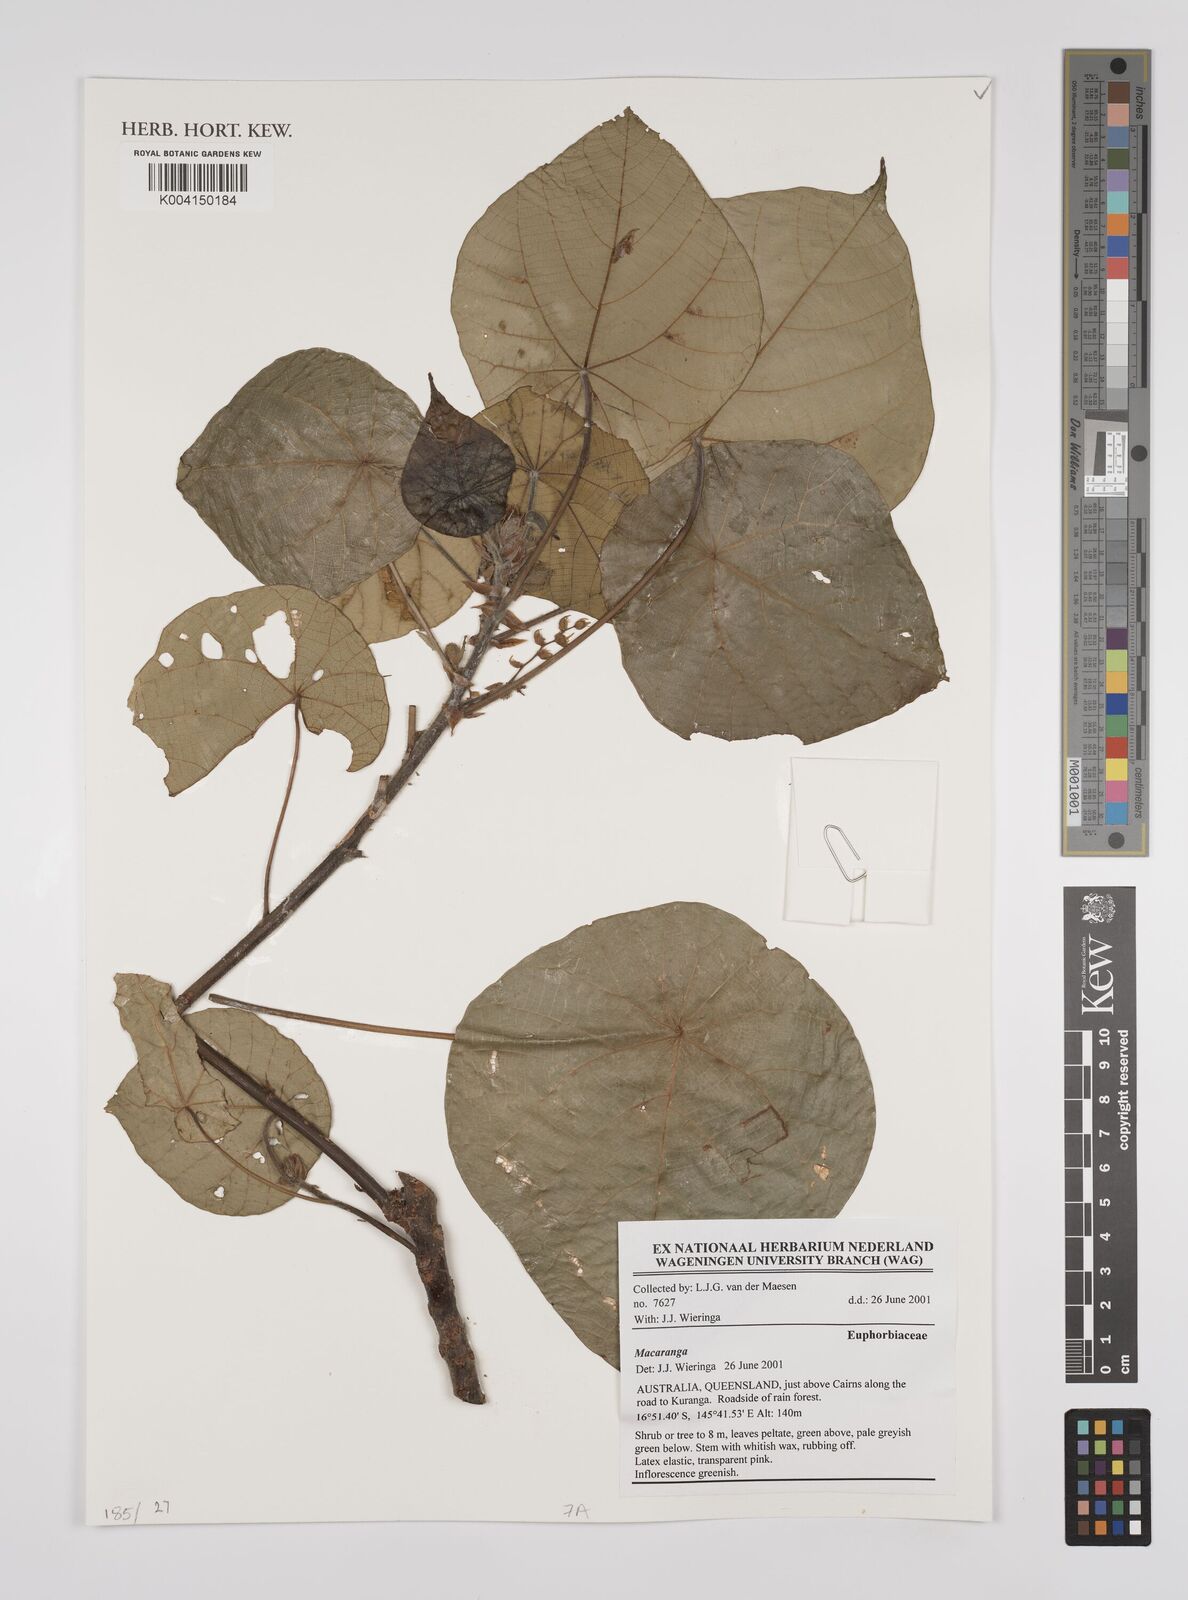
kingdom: Plantae
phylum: Tracheophyta
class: Magnoliopsida
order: Malpighiales
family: Euphorbiaceae
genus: Macaranga
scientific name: Macaranga
